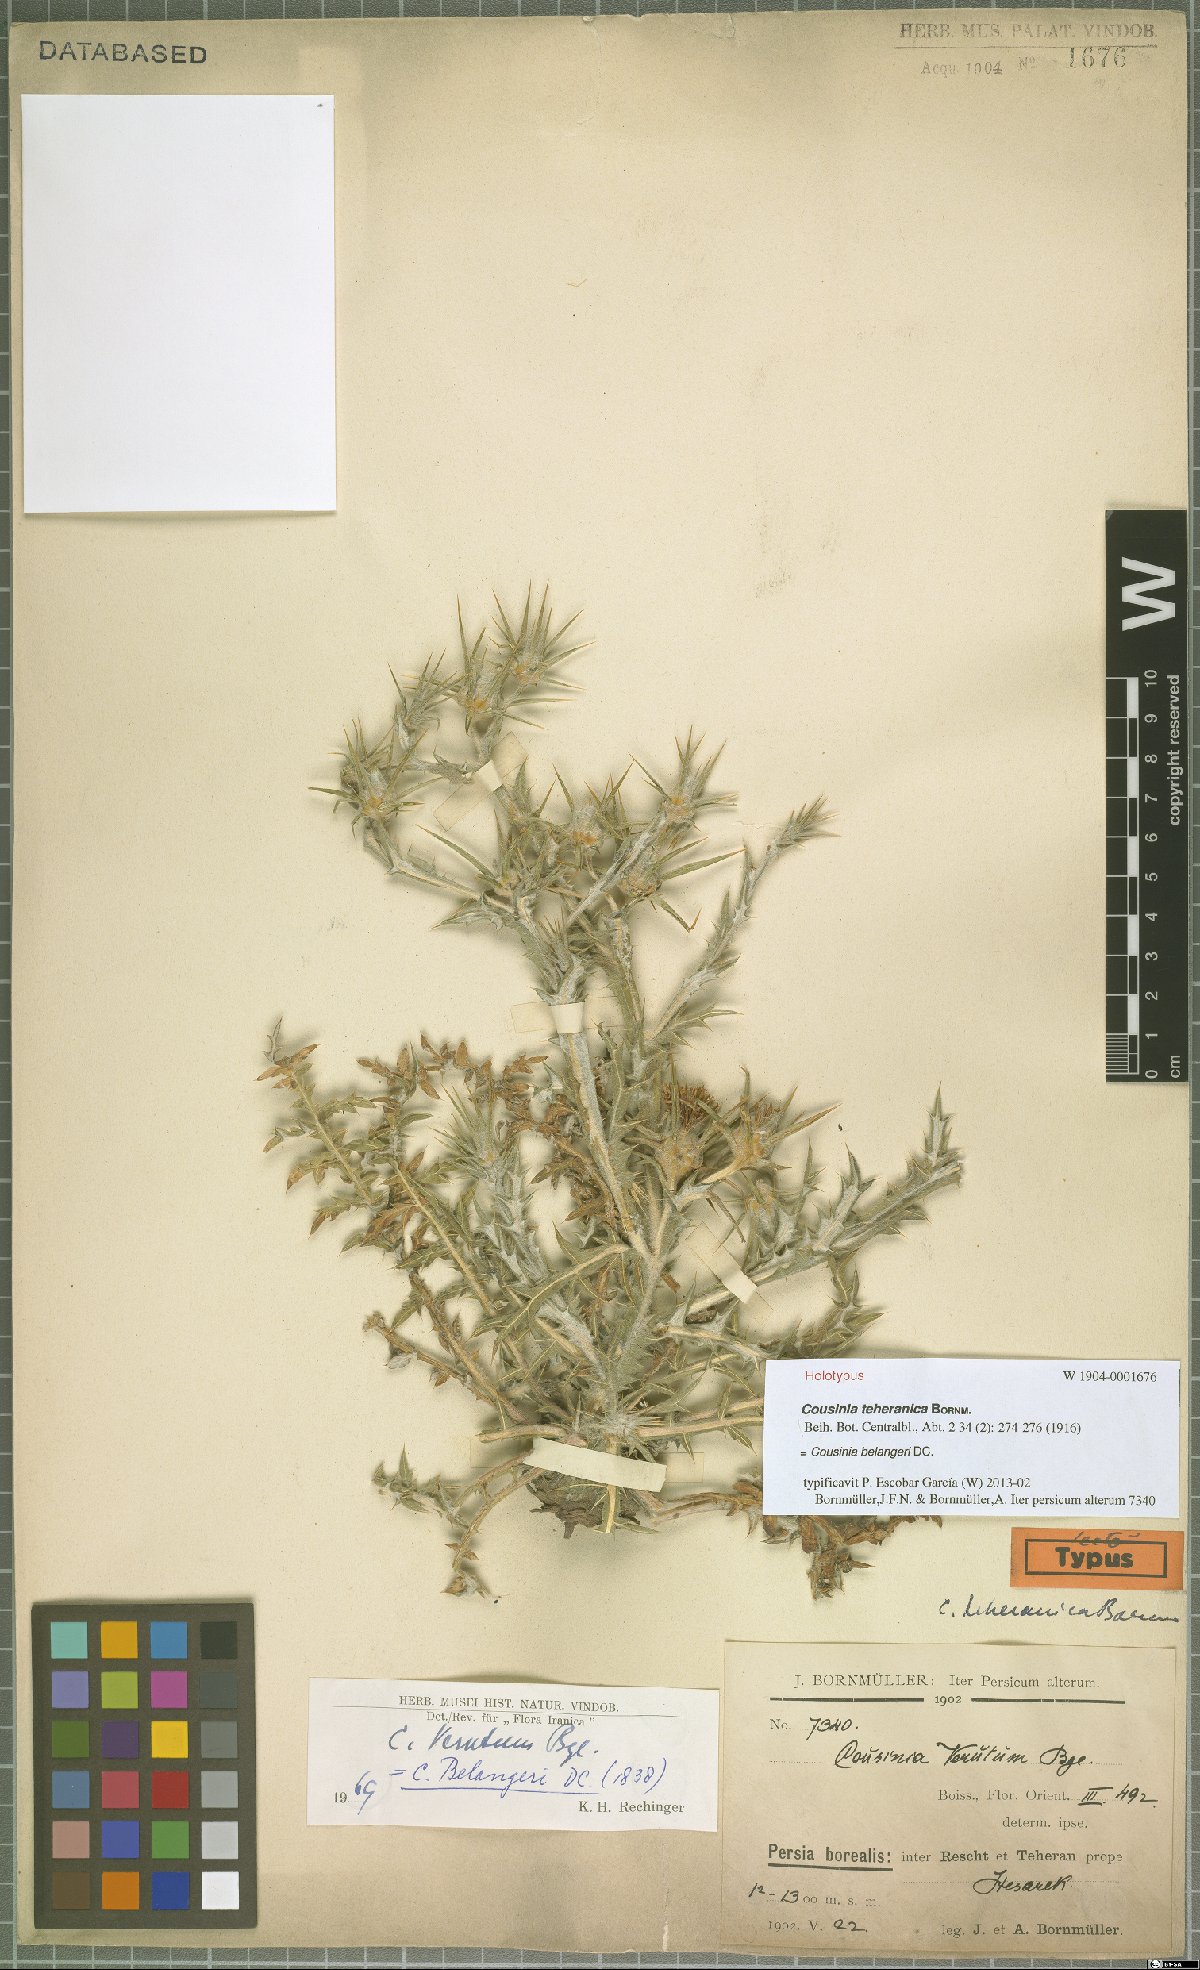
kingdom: Plantae
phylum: Tracheophyta
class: Magnoliopsida
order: Asterales
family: Asteraceae
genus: Cousinia
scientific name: Cousinia belangeri
